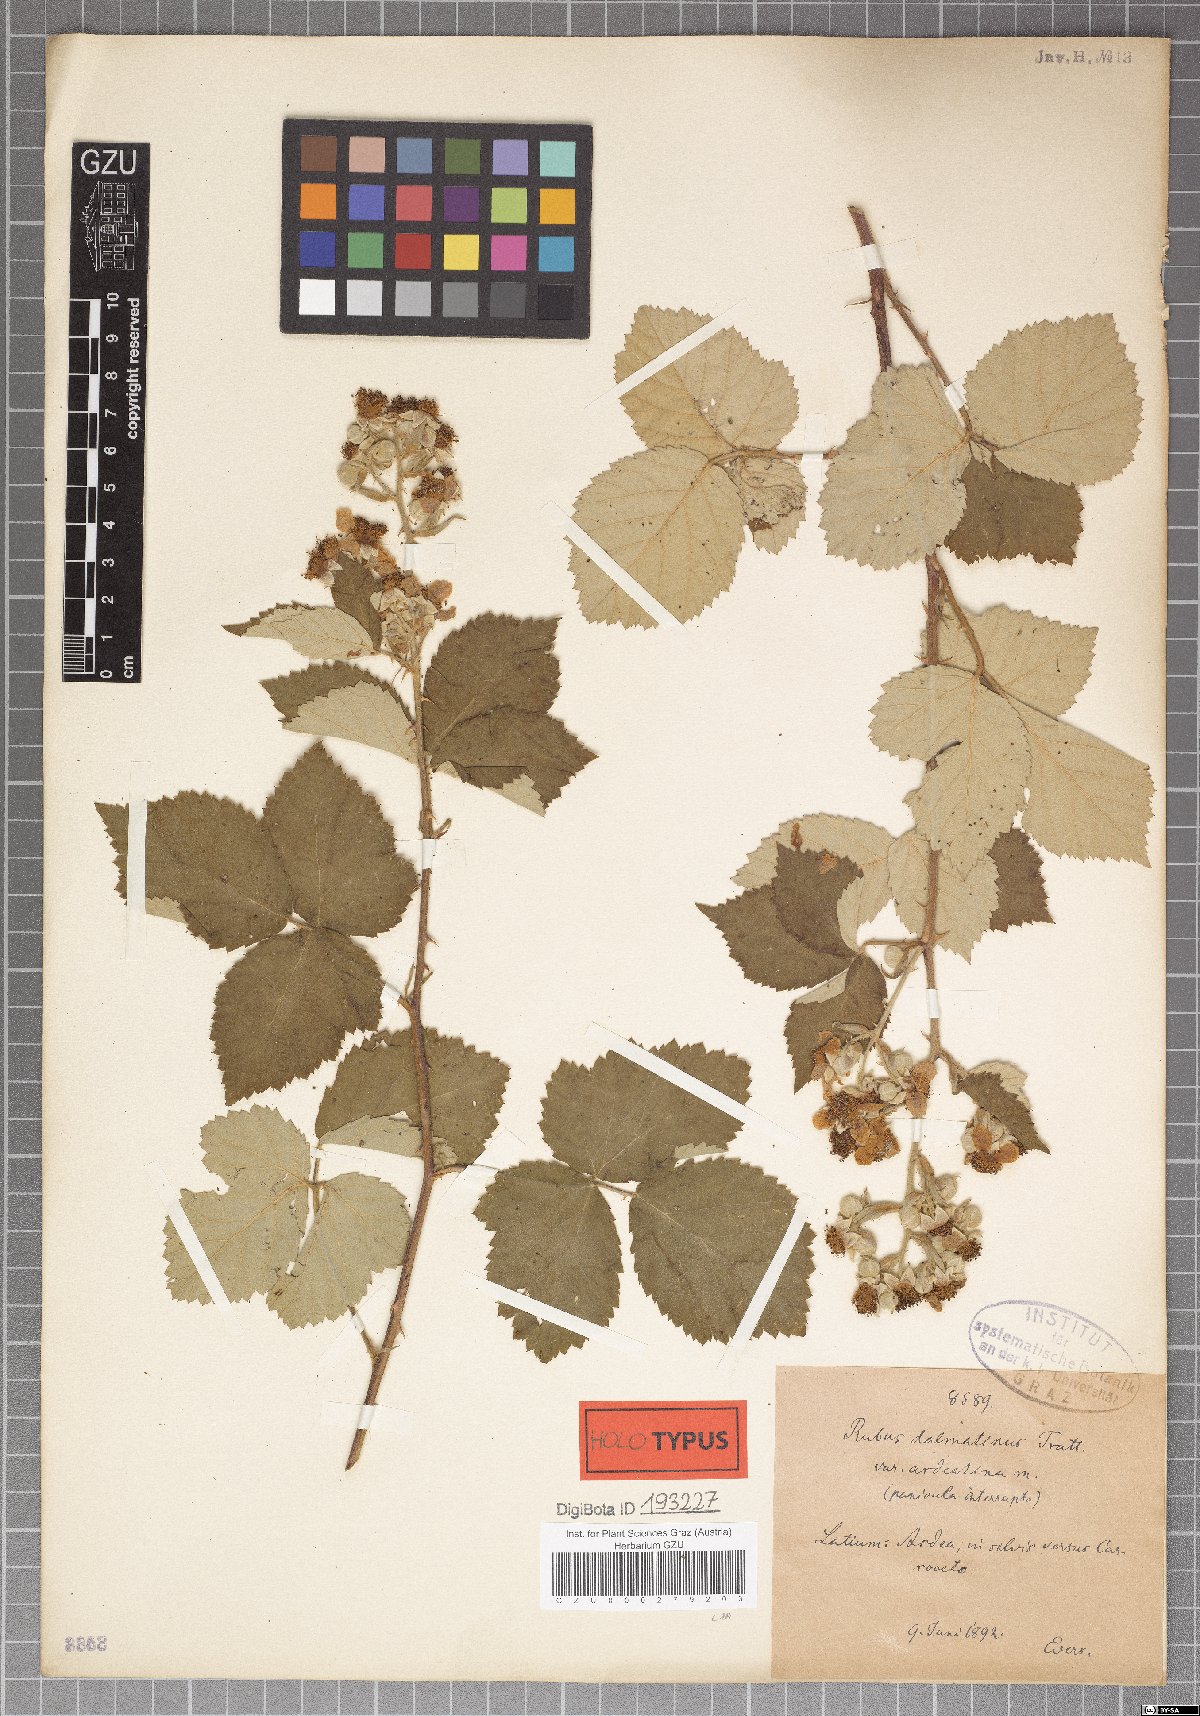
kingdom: Plantae
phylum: Tracheophyta
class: Magnoliopsida
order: Rosales
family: Rosaceae
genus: Rubus
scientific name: Rubus sanctus
